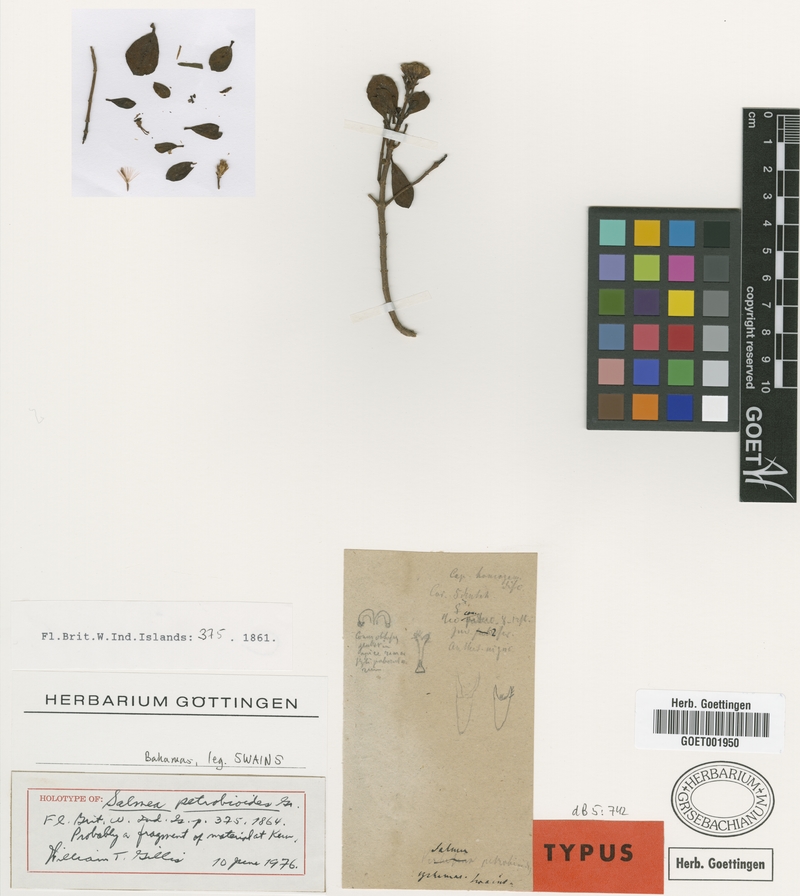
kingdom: Plantae
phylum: Tracheophyta
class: Magnoliopsida
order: Asterales
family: Asteraceae
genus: Salmea
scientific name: Salmea petrobioides
